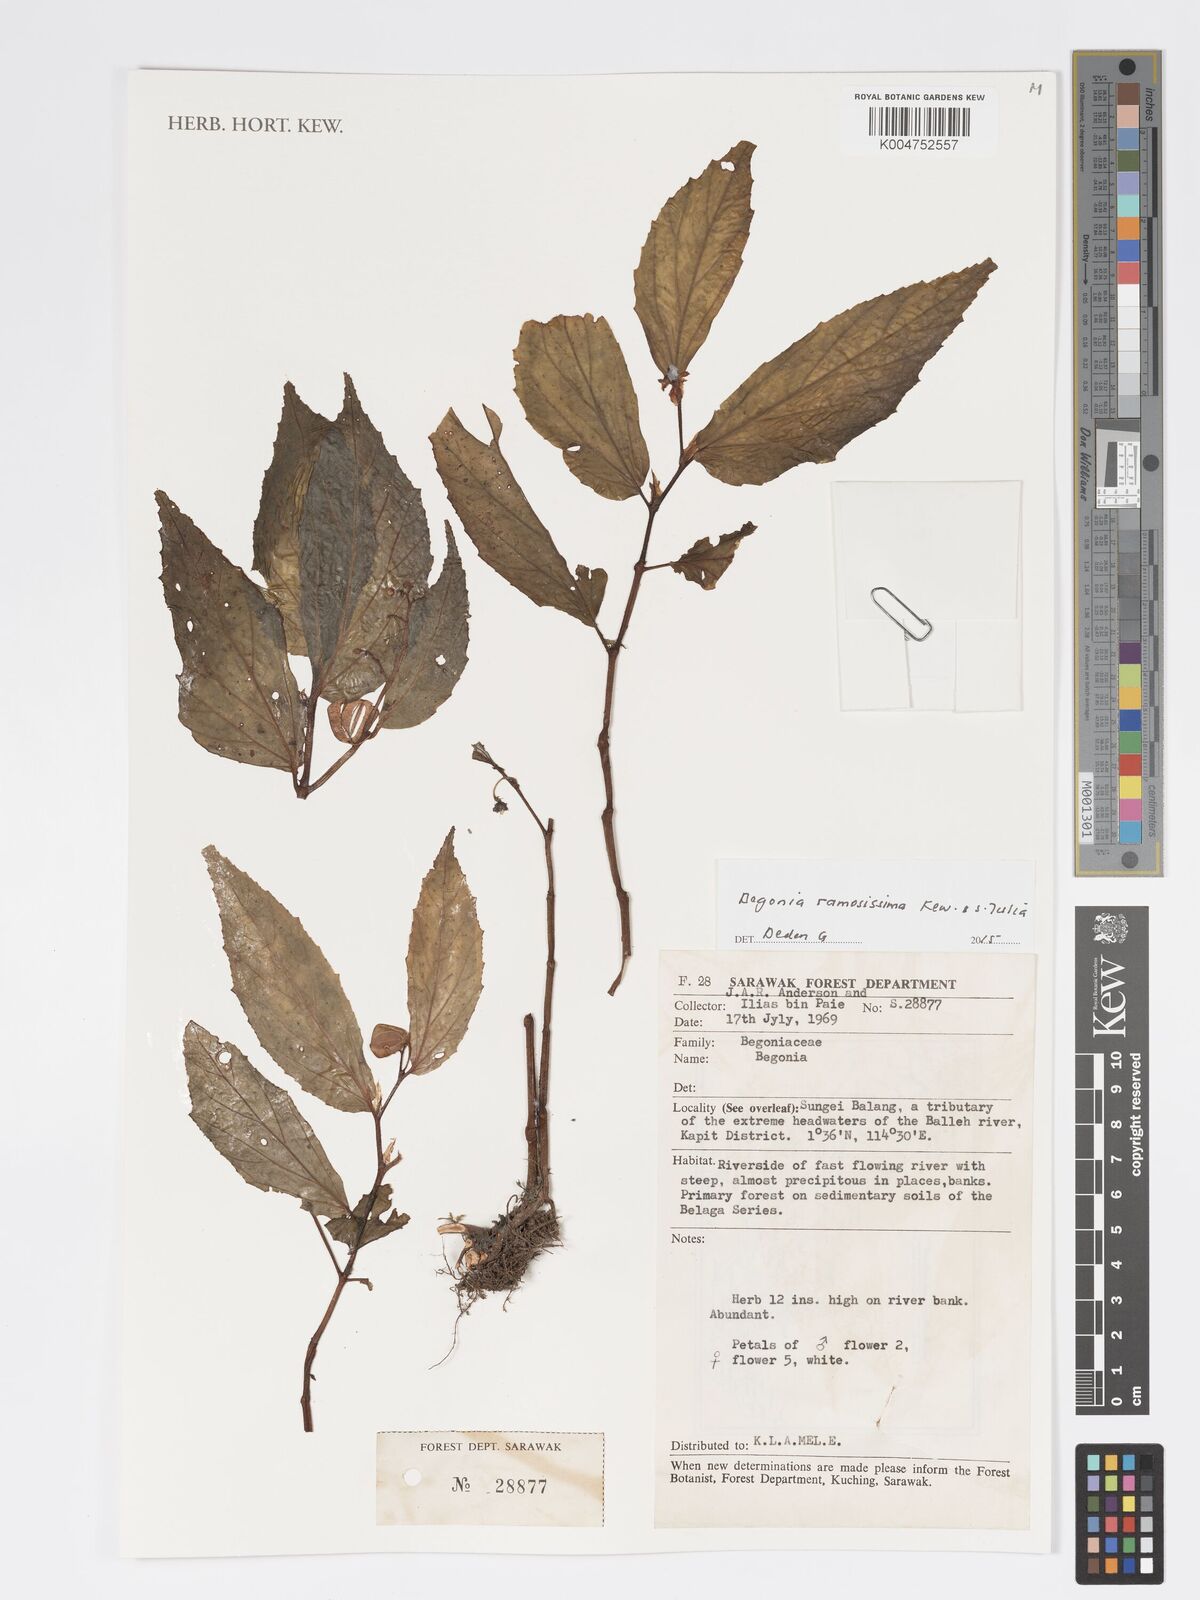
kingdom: Plantae
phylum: Tracheophyta
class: Magnoliopsida
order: Cucurbitales
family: Begoniaceae
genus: Begonia
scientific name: Begonia ramosissima
